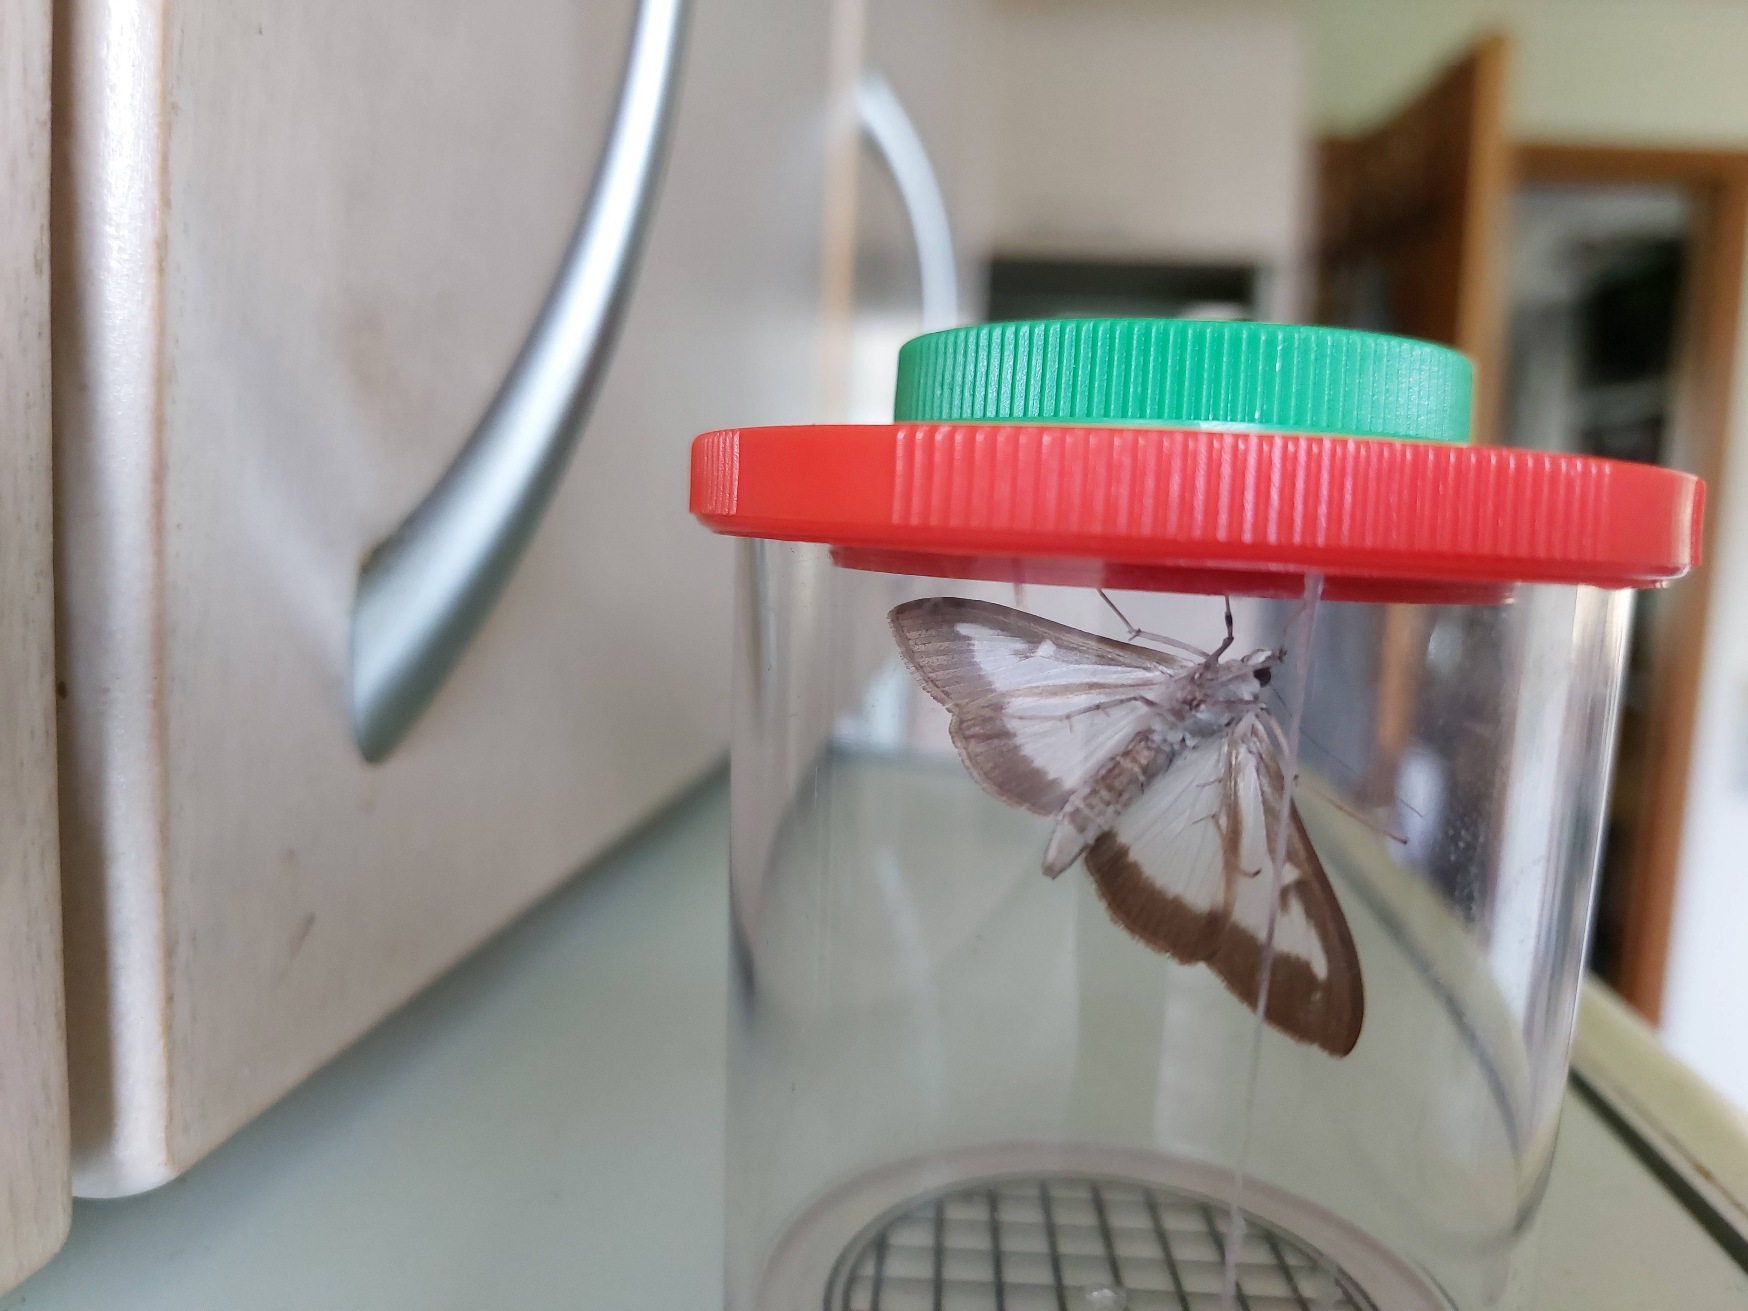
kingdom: Animalia
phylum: Arthropoda
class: Insecta
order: Lepidoptera
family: Crambidae
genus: Cydalima
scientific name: Cydalima perspectalis
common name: Buksbomhalvmøl
